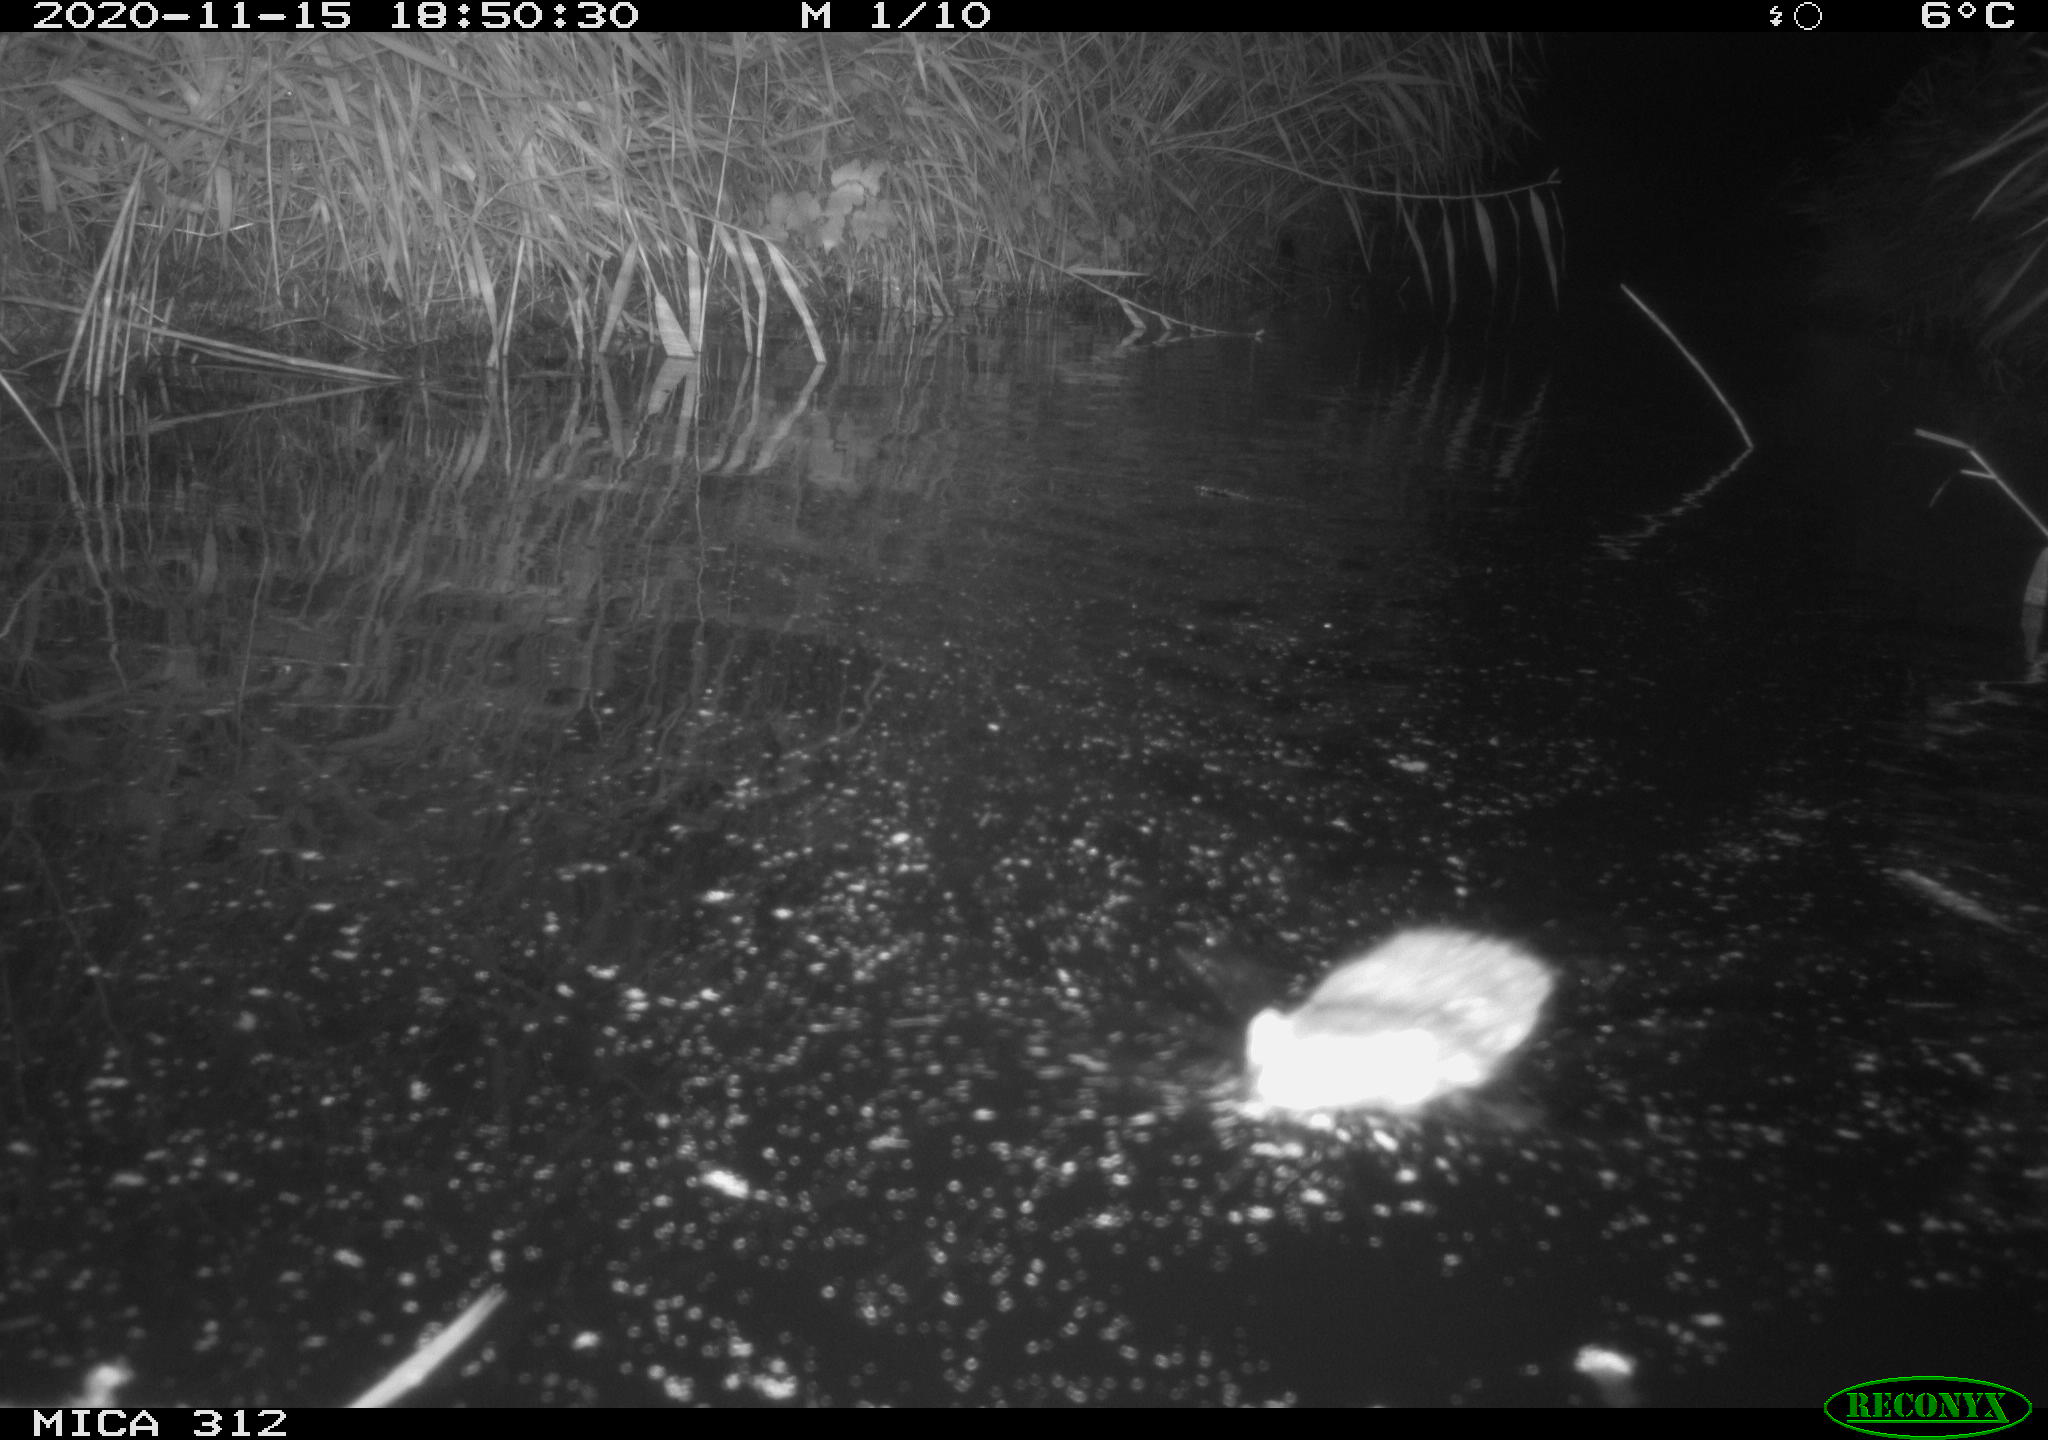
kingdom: Animalia
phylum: Chordata
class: Mammalia
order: Rodentia
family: Cricetidae
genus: Ondatra
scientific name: Ondatra zibethicus
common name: Muskrat
